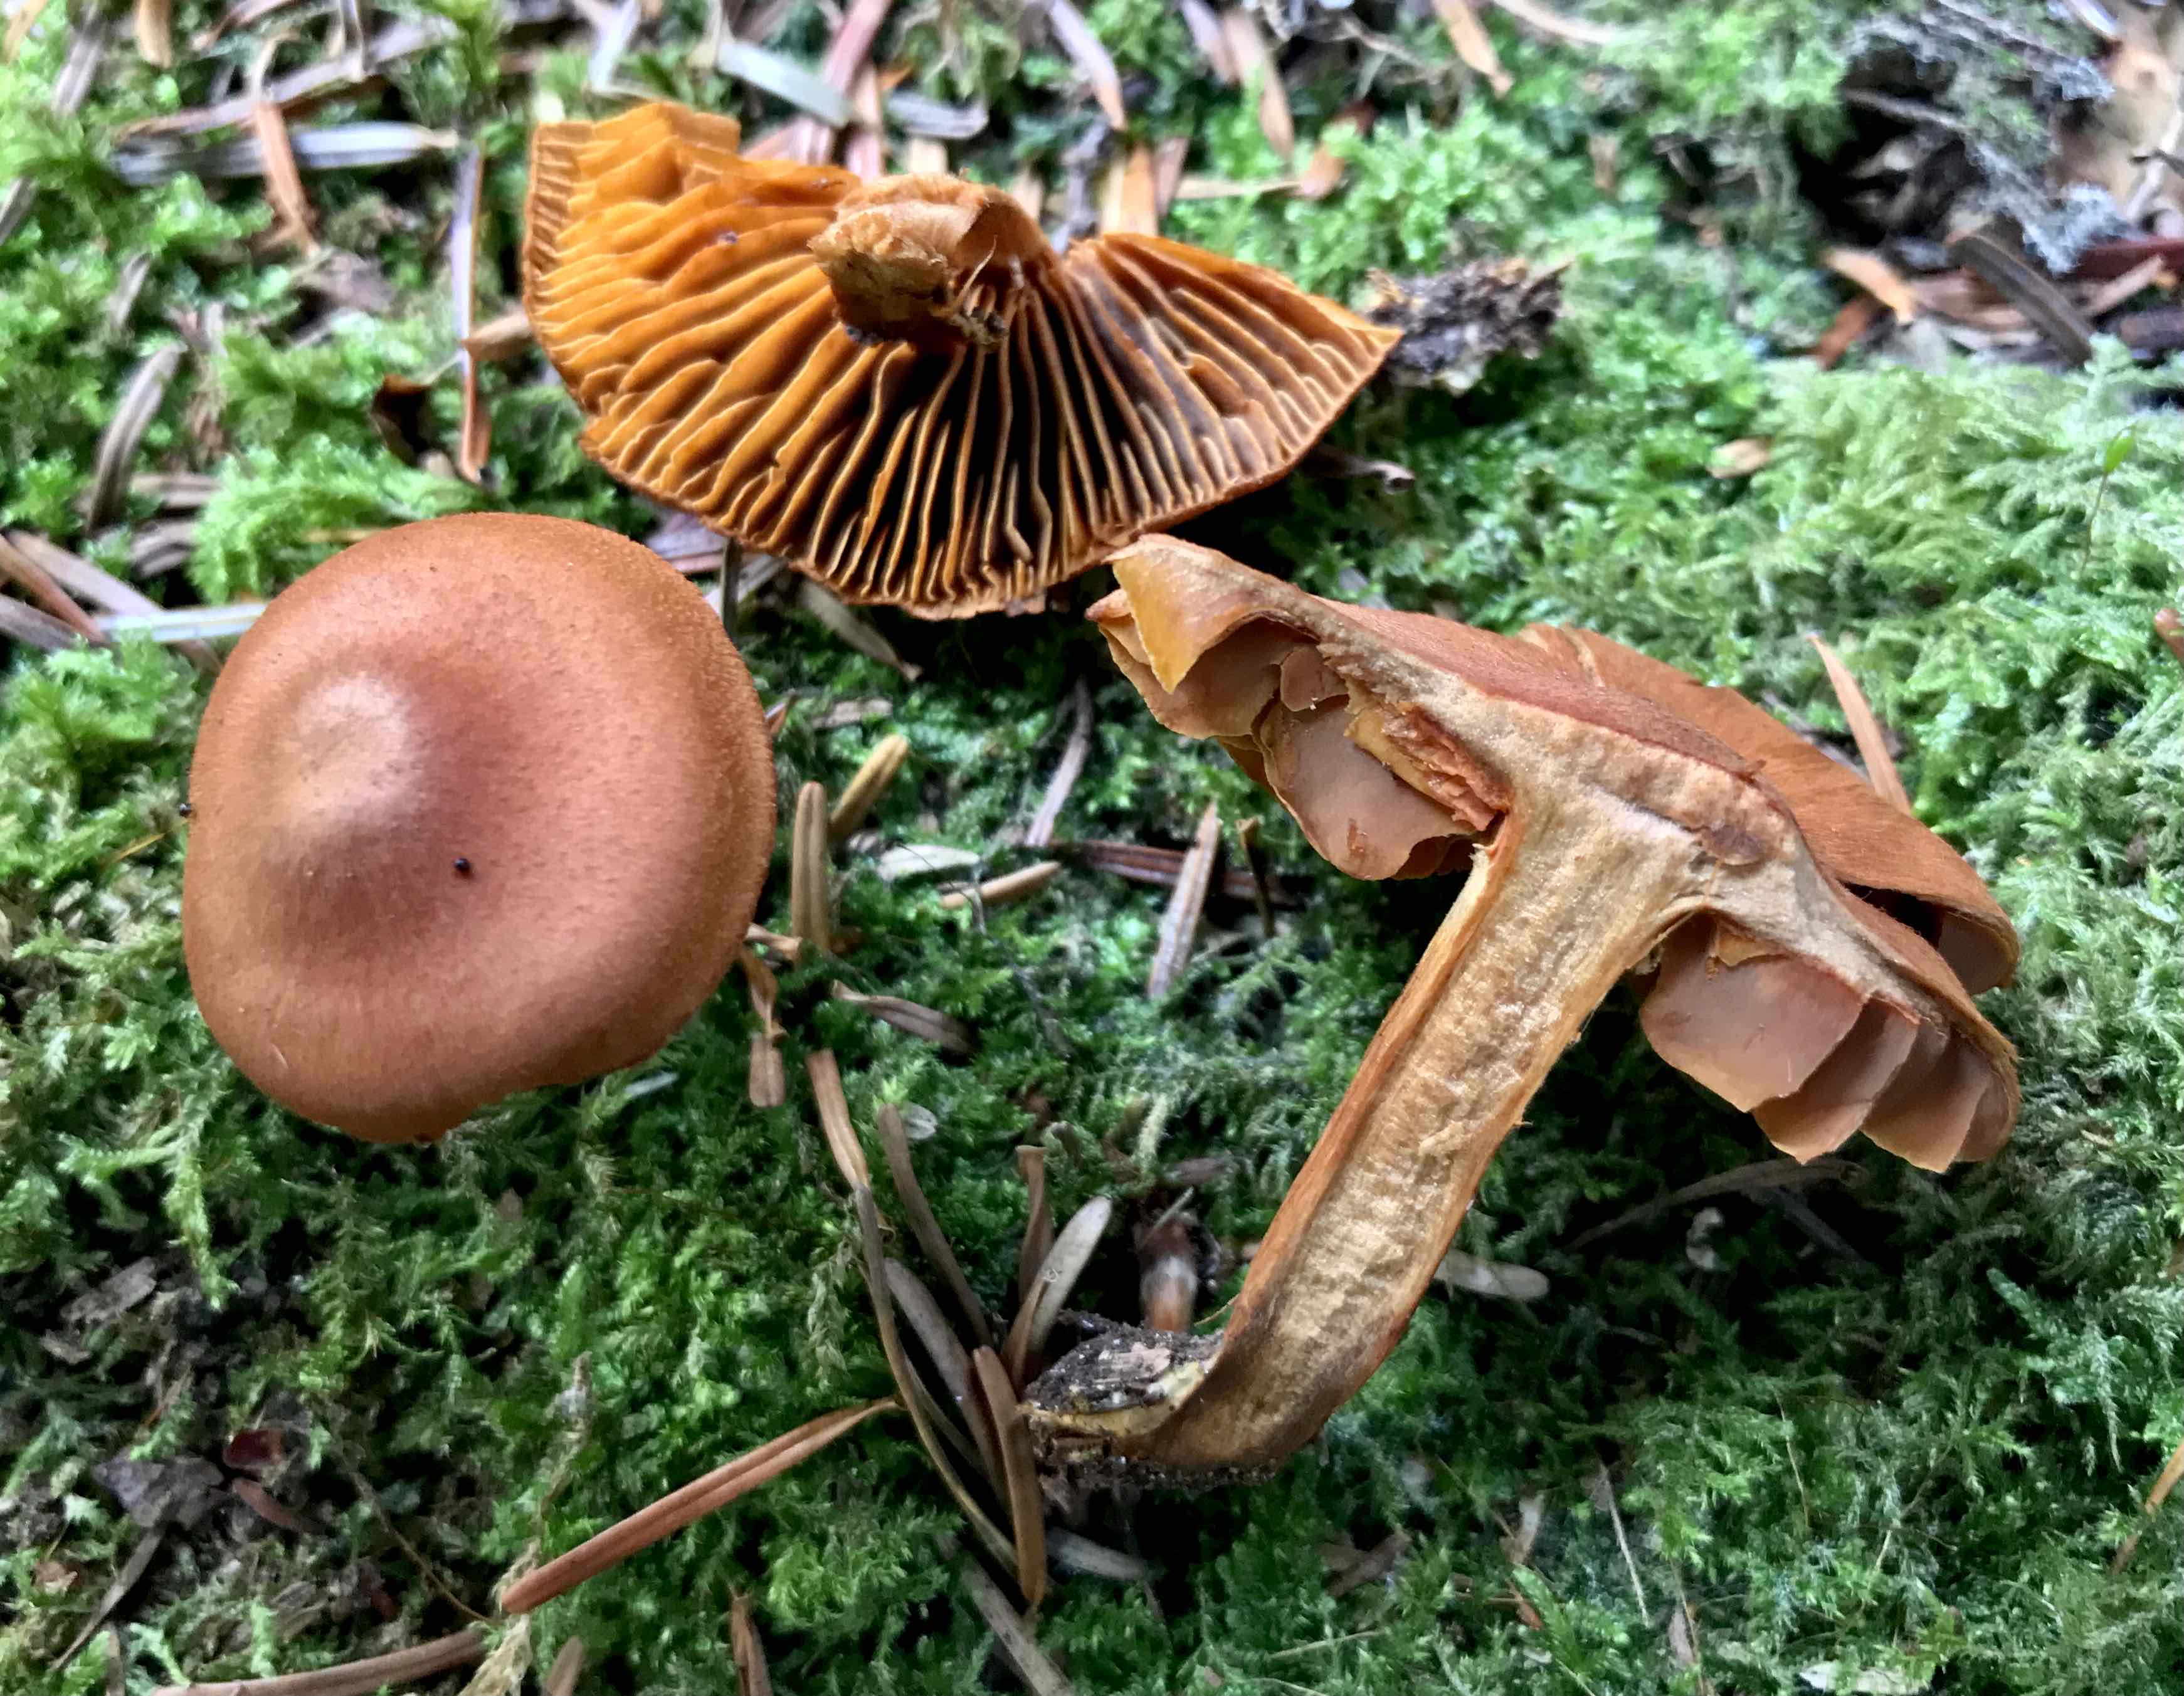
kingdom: Fungi
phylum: Basidiomycota
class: Agaricomycetes
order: Agaricales
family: Cortinariaceae
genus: Cortinarius
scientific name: Cortinarius cinnamomeus
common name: kanel-slørhat
